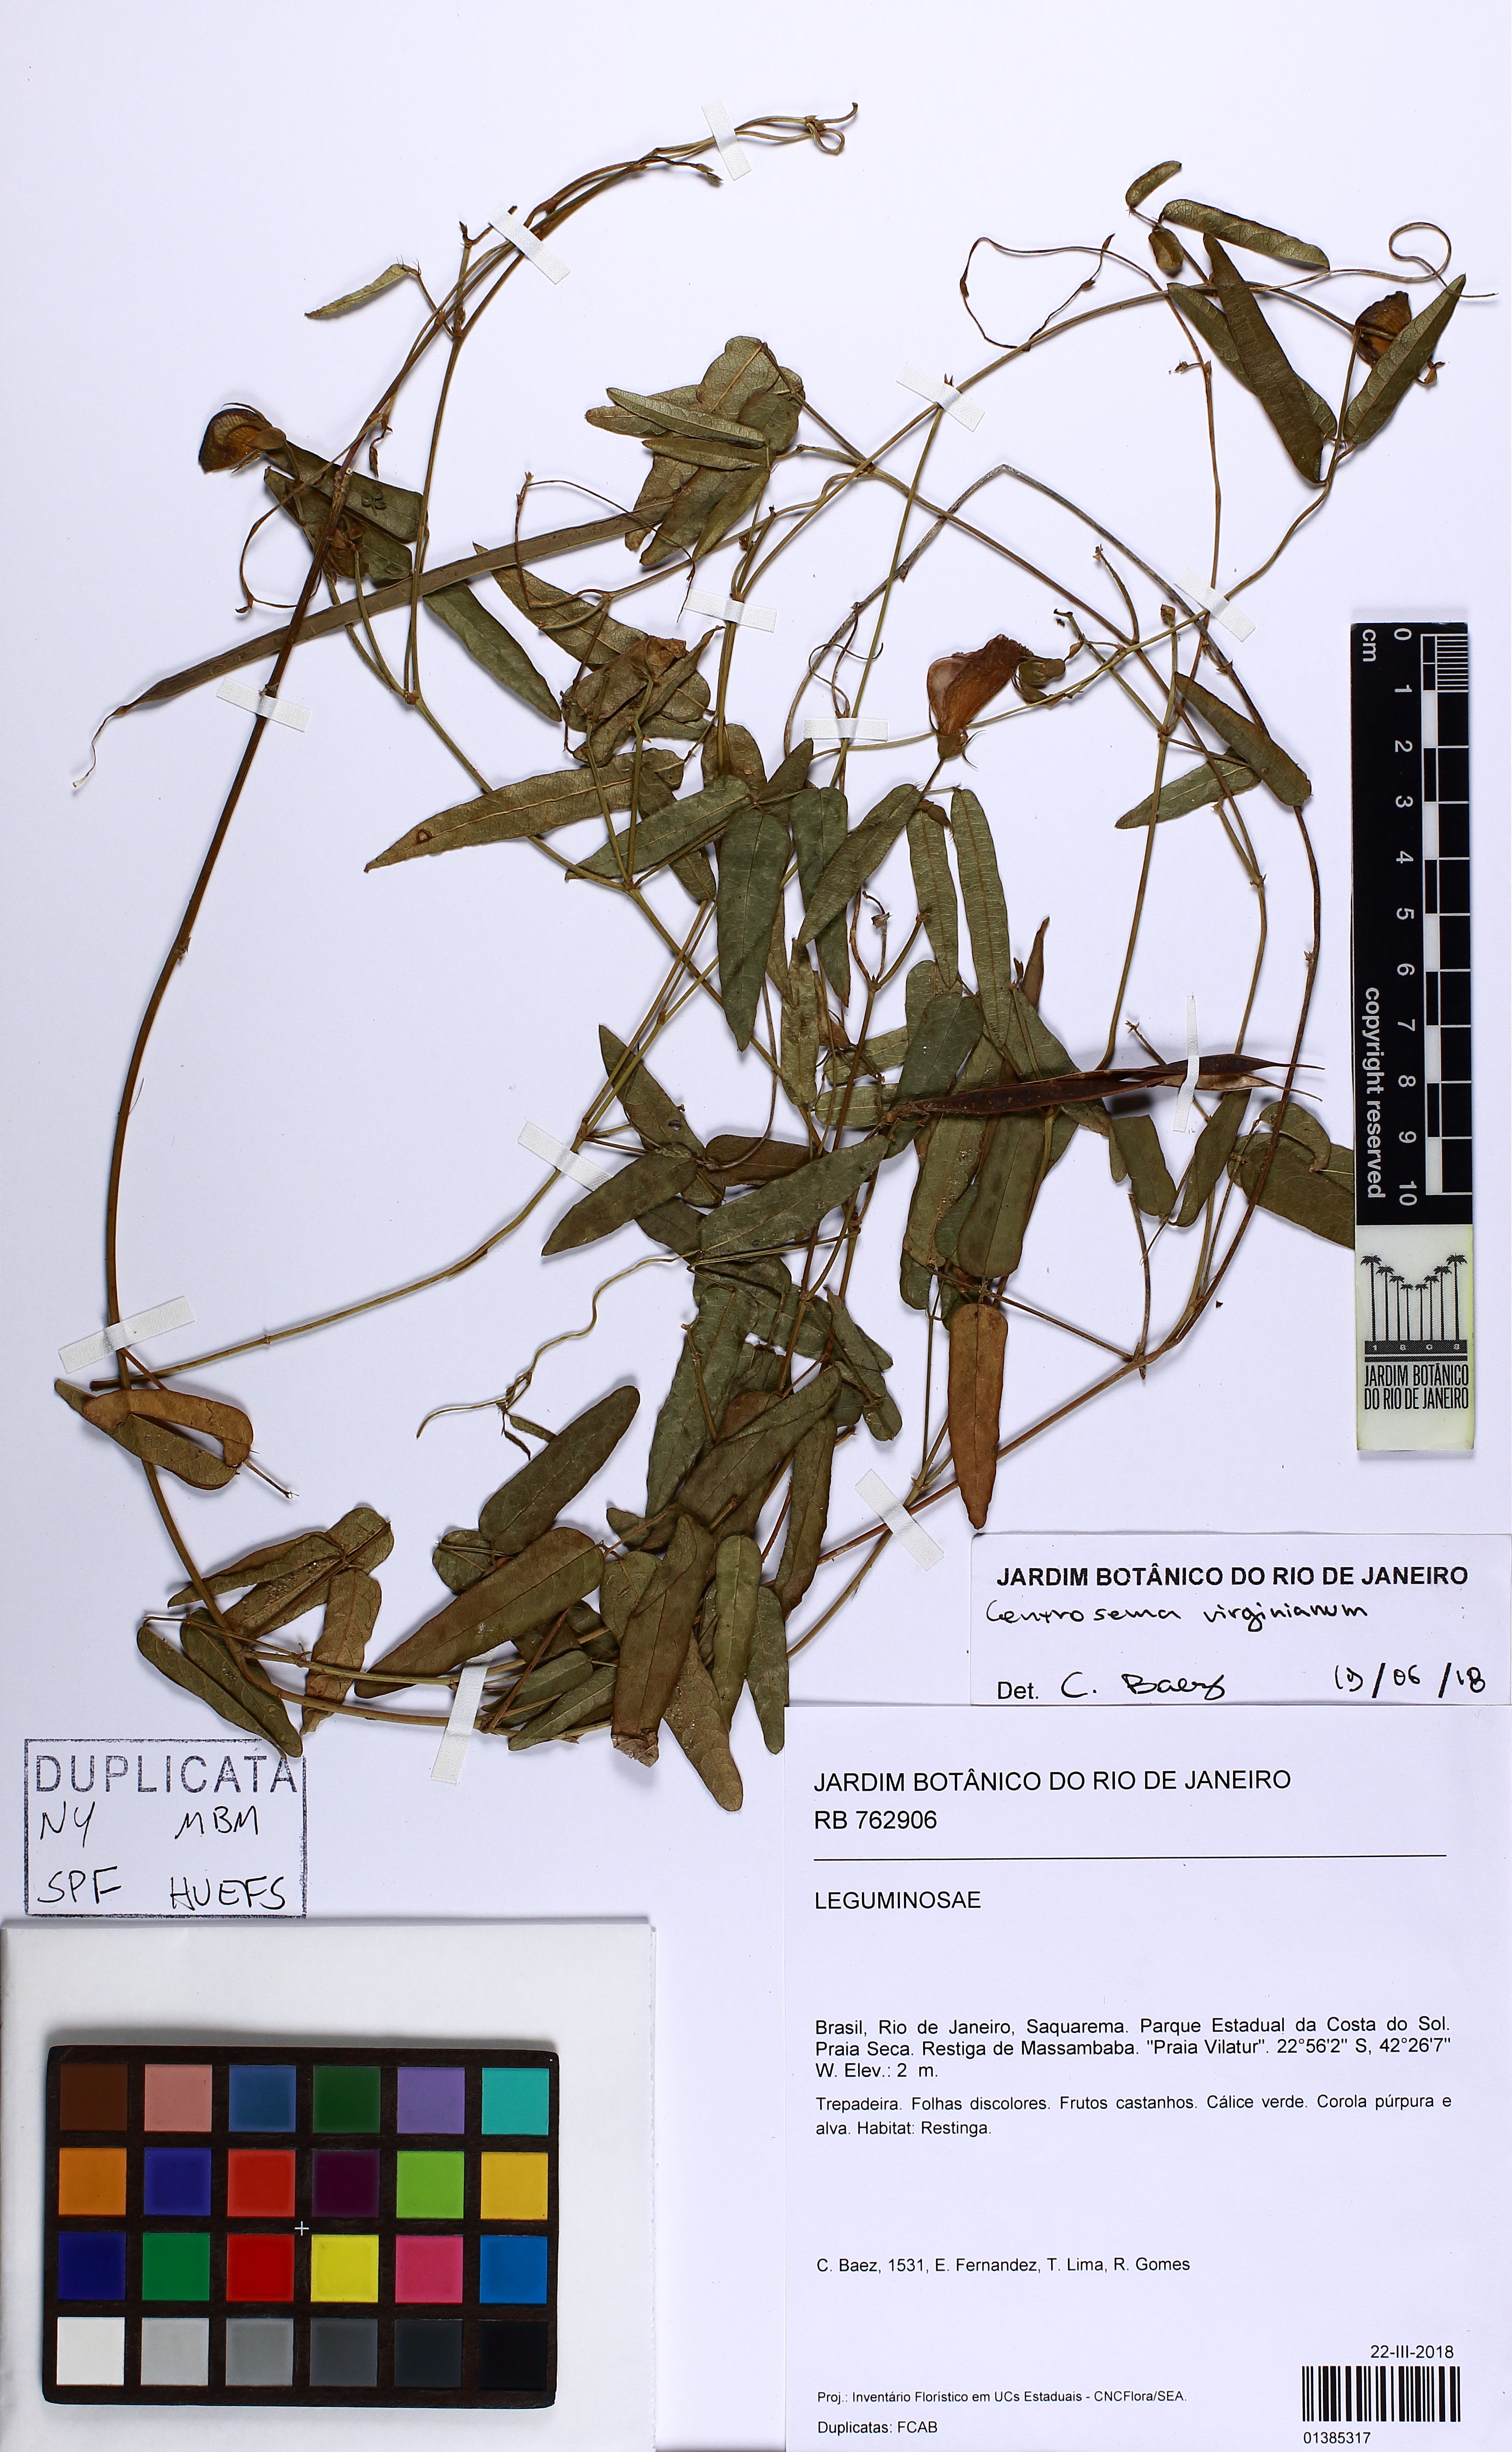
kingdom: Plantae
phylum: Tracheophyta
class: Magnoliopsida
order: Fabales
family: Fabaceae
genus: Centrosema
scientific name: Centrosema virginianum
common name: Butterfly-pea
